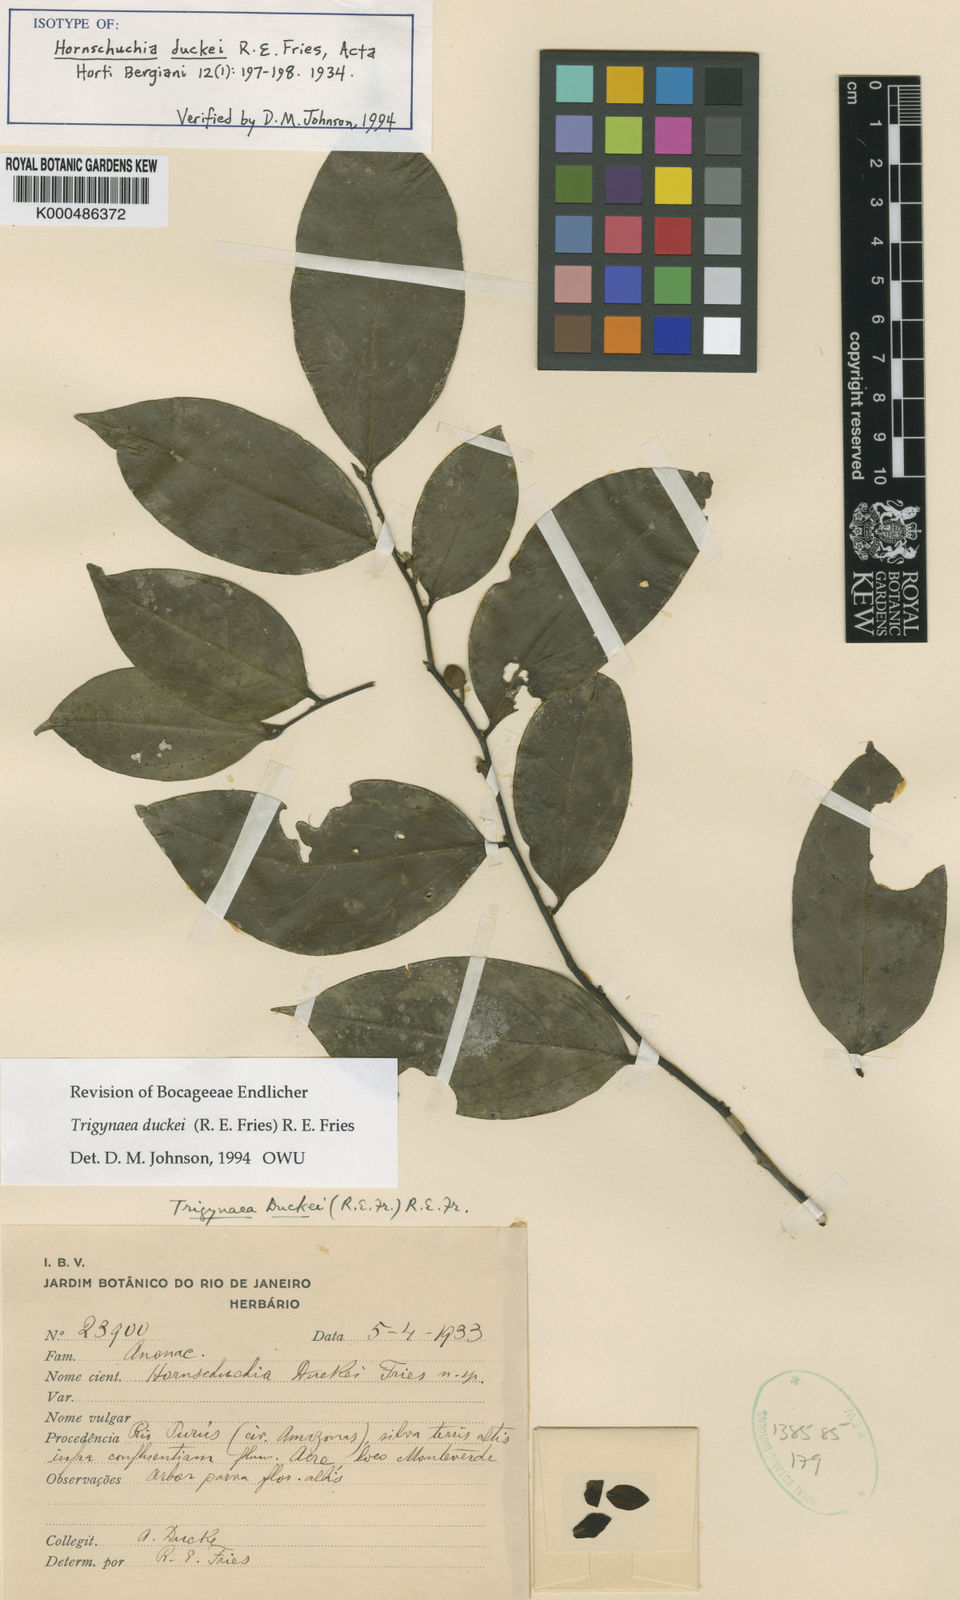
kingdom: Plantae
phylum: Tracheophyta
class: Magnoliopsida
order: Magnoliales
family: Annonaceae
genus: Trigynaea
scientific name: Trigynaea duckei
